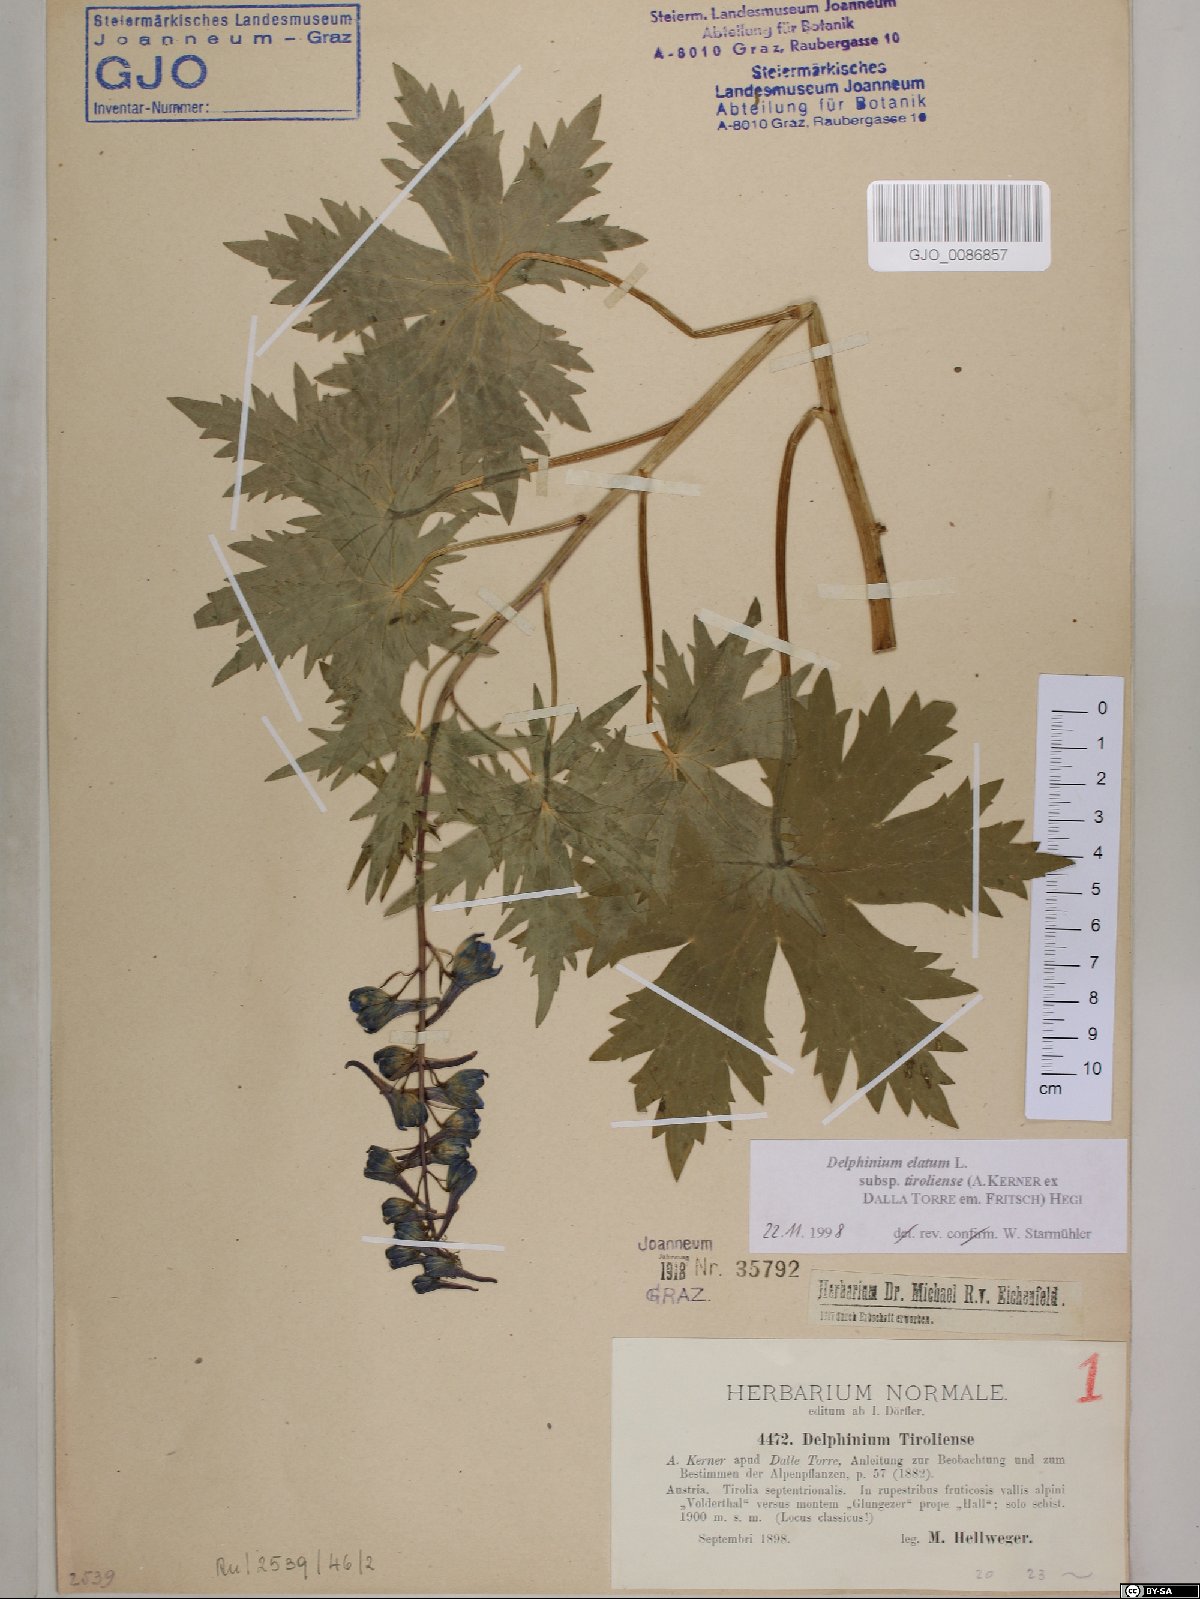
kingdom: Plantae
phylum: Tracheophyta
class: Magnoliopsida
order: Ranunculales
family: Ranunculaceae
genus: Delphinium
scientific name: Delphinium elatum
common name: Candle larkspur
